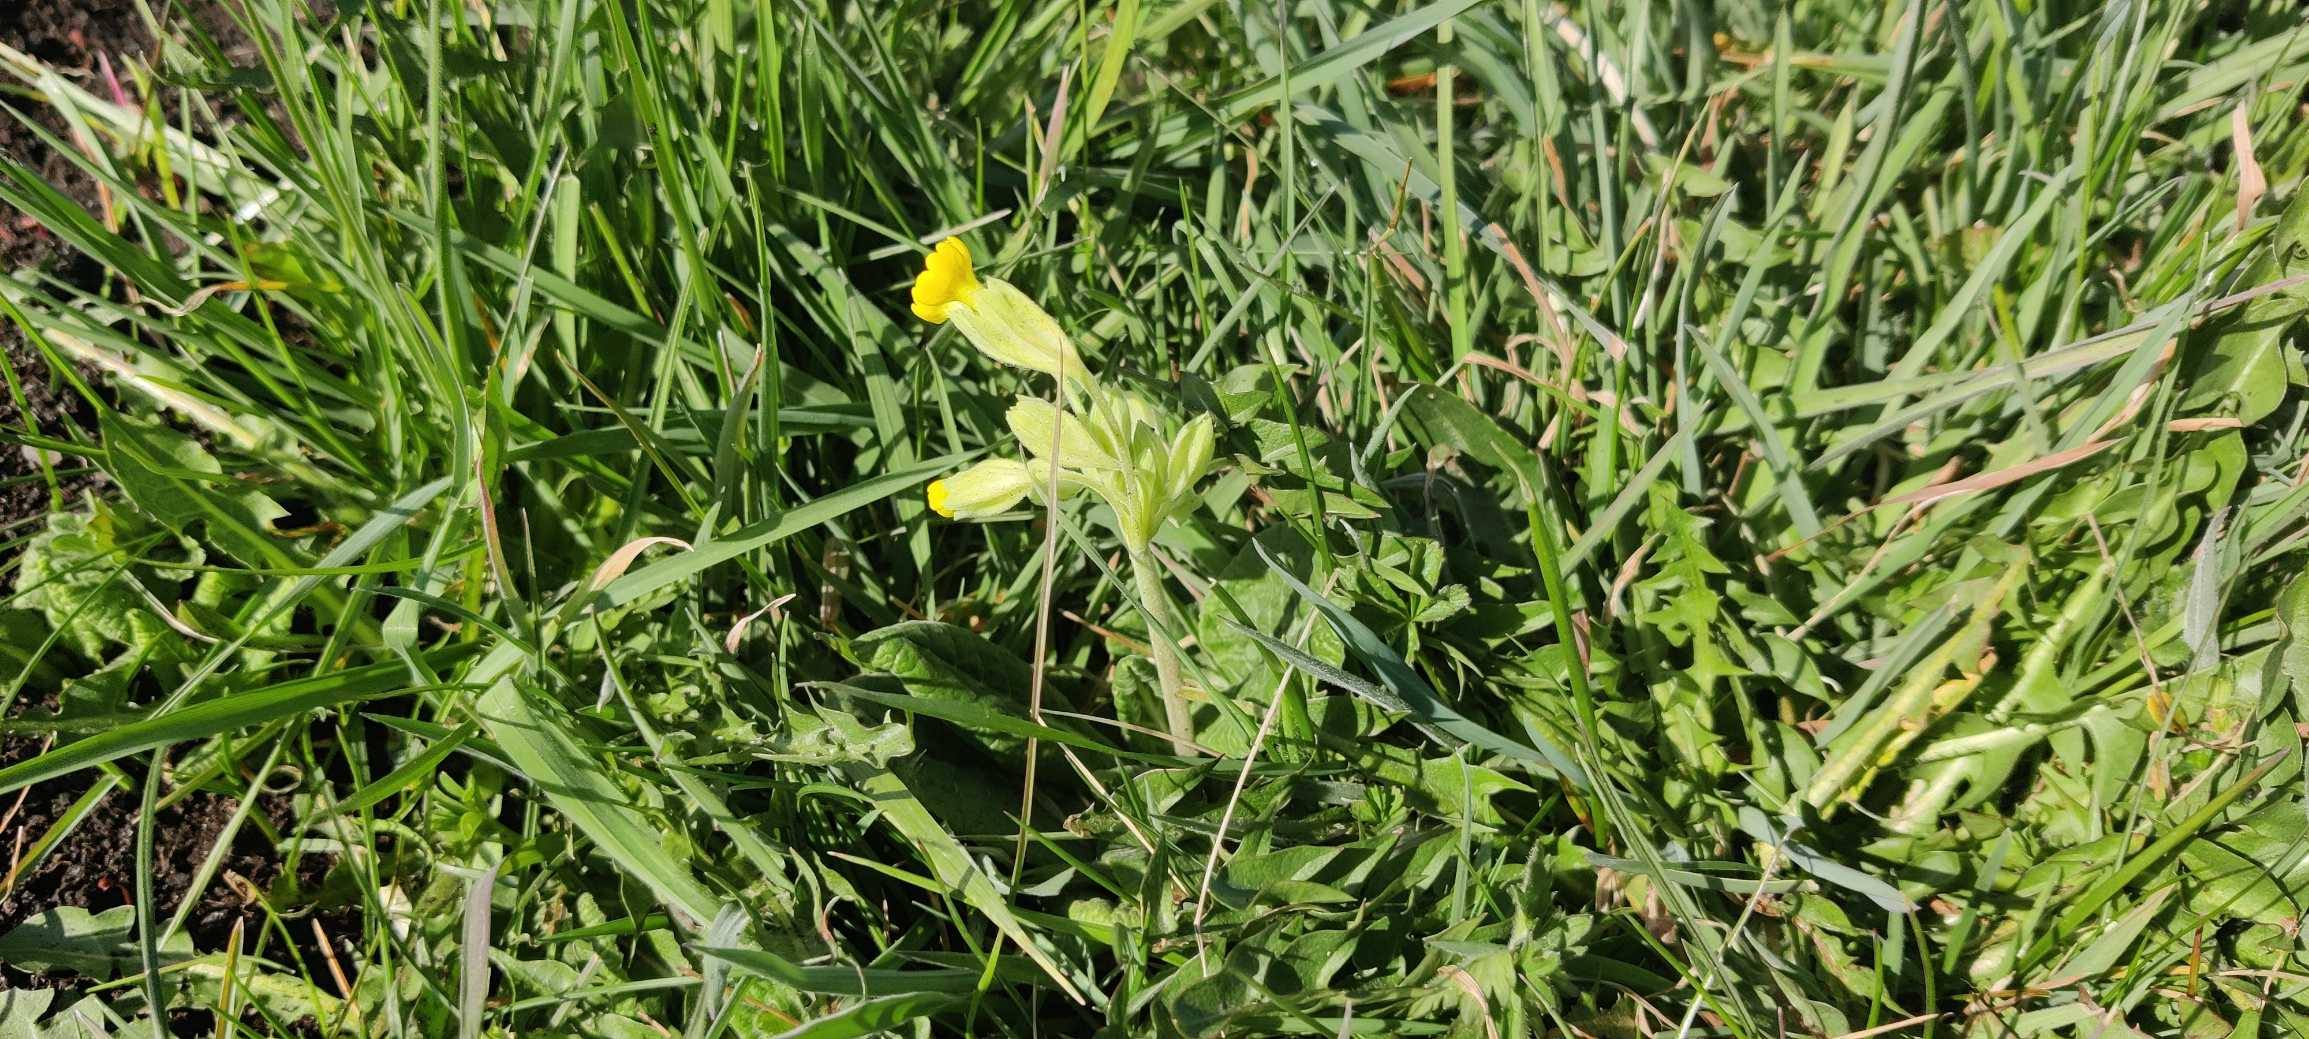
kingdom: Plantae
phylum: Tracheophyta
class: Magnoliopsida
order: Ericales
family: Primulaceae
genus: Primula
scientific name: Primula veris
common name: Hulkravet kodriver
